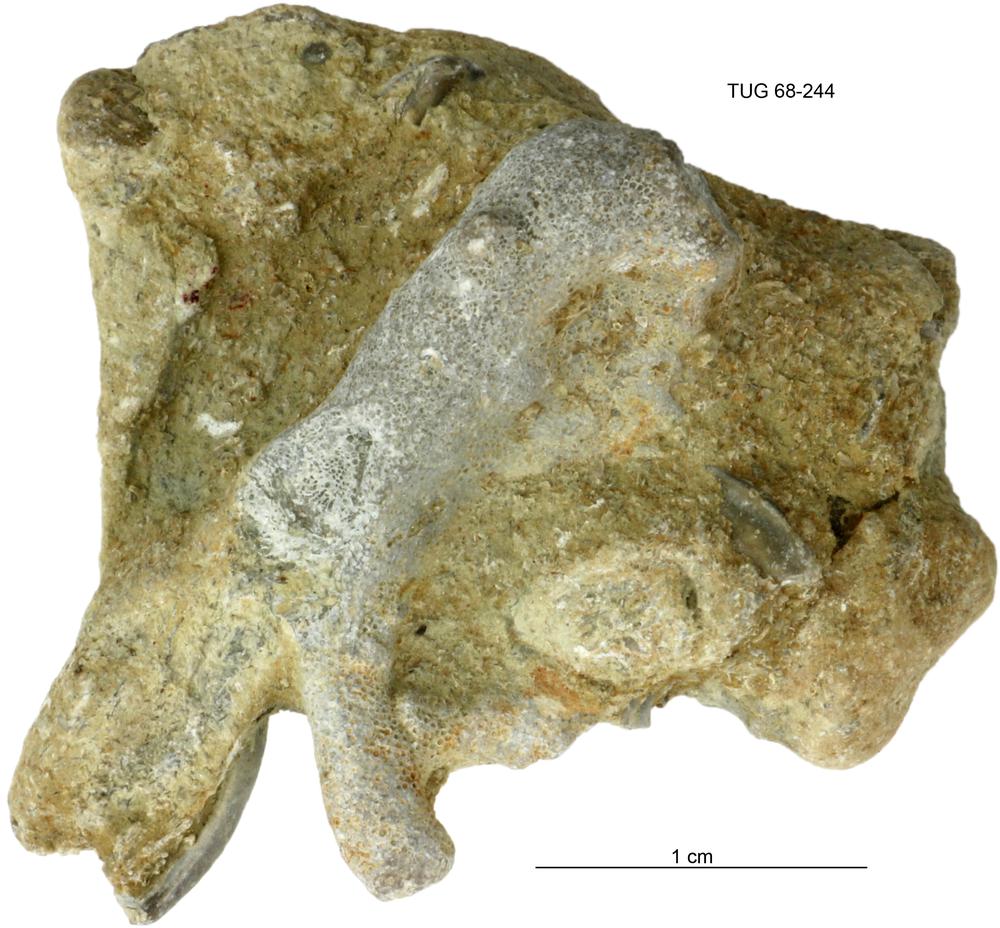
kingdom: Animalia
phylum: Bryozoa
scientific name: Bryozoa
